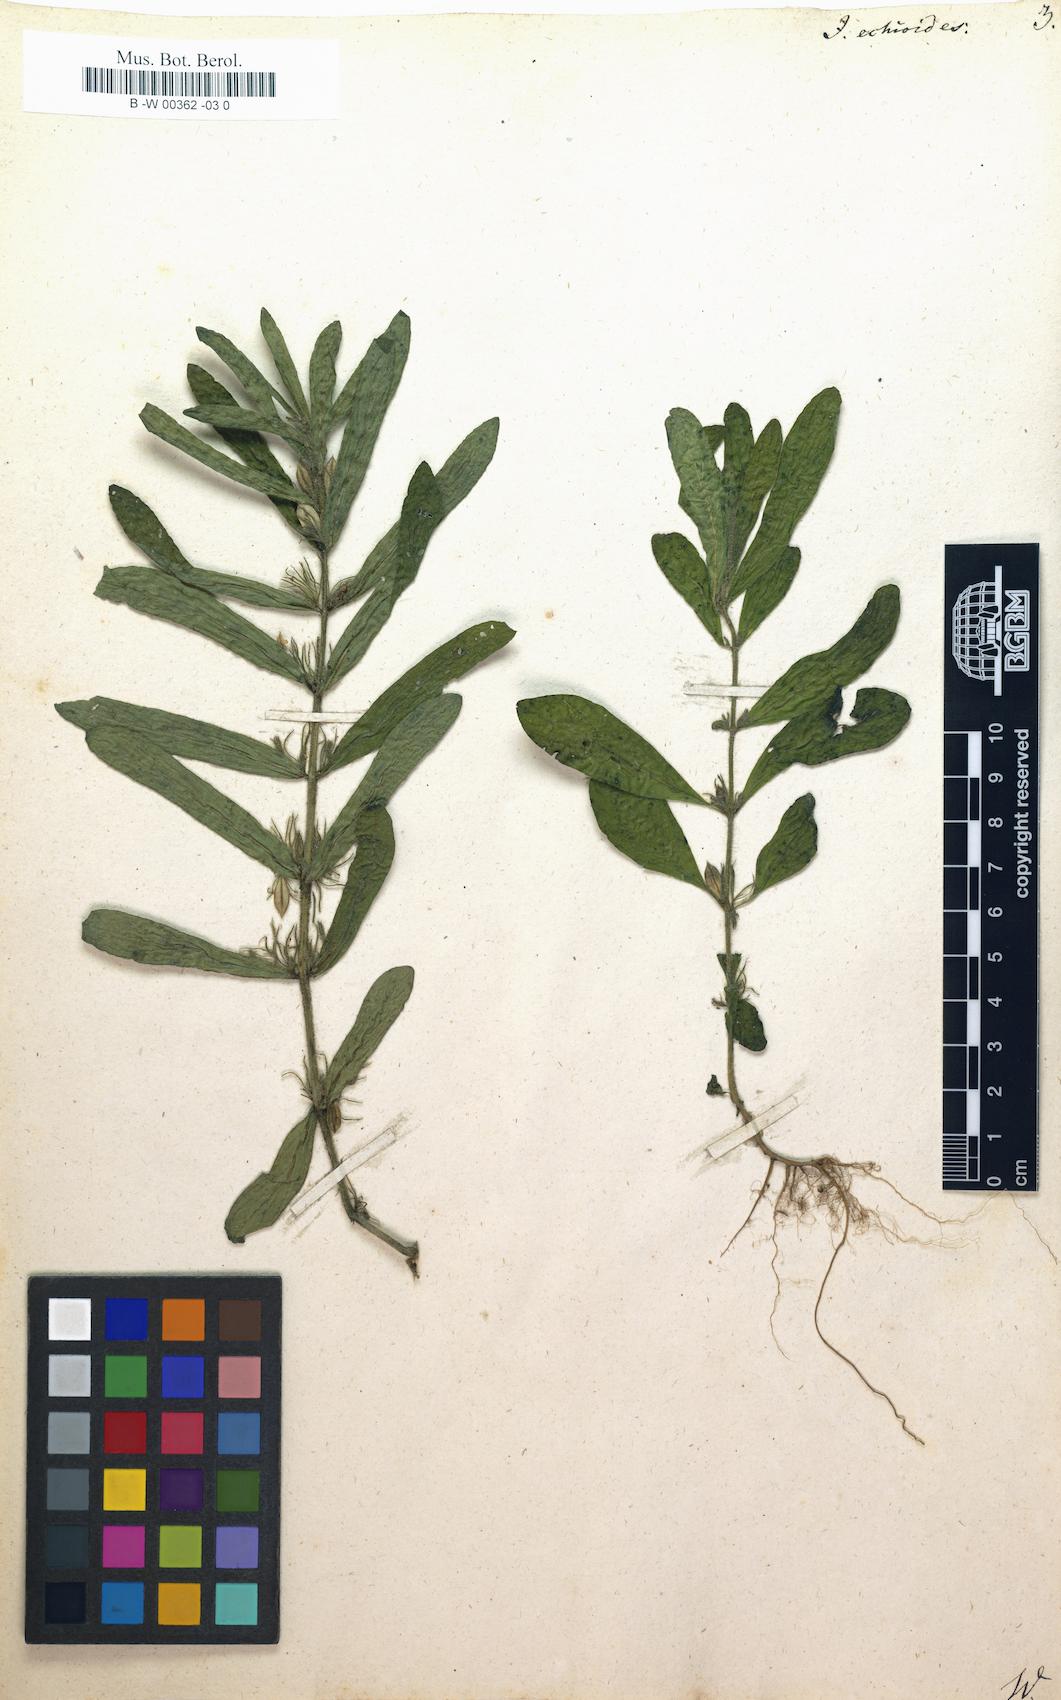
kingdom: Plantae
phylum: Tracheophyta
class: Magnoliopsida
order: Lamiales
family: Acanthaceae
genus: Andrographis
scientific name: Andrographis echioides
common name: False waterwillow
